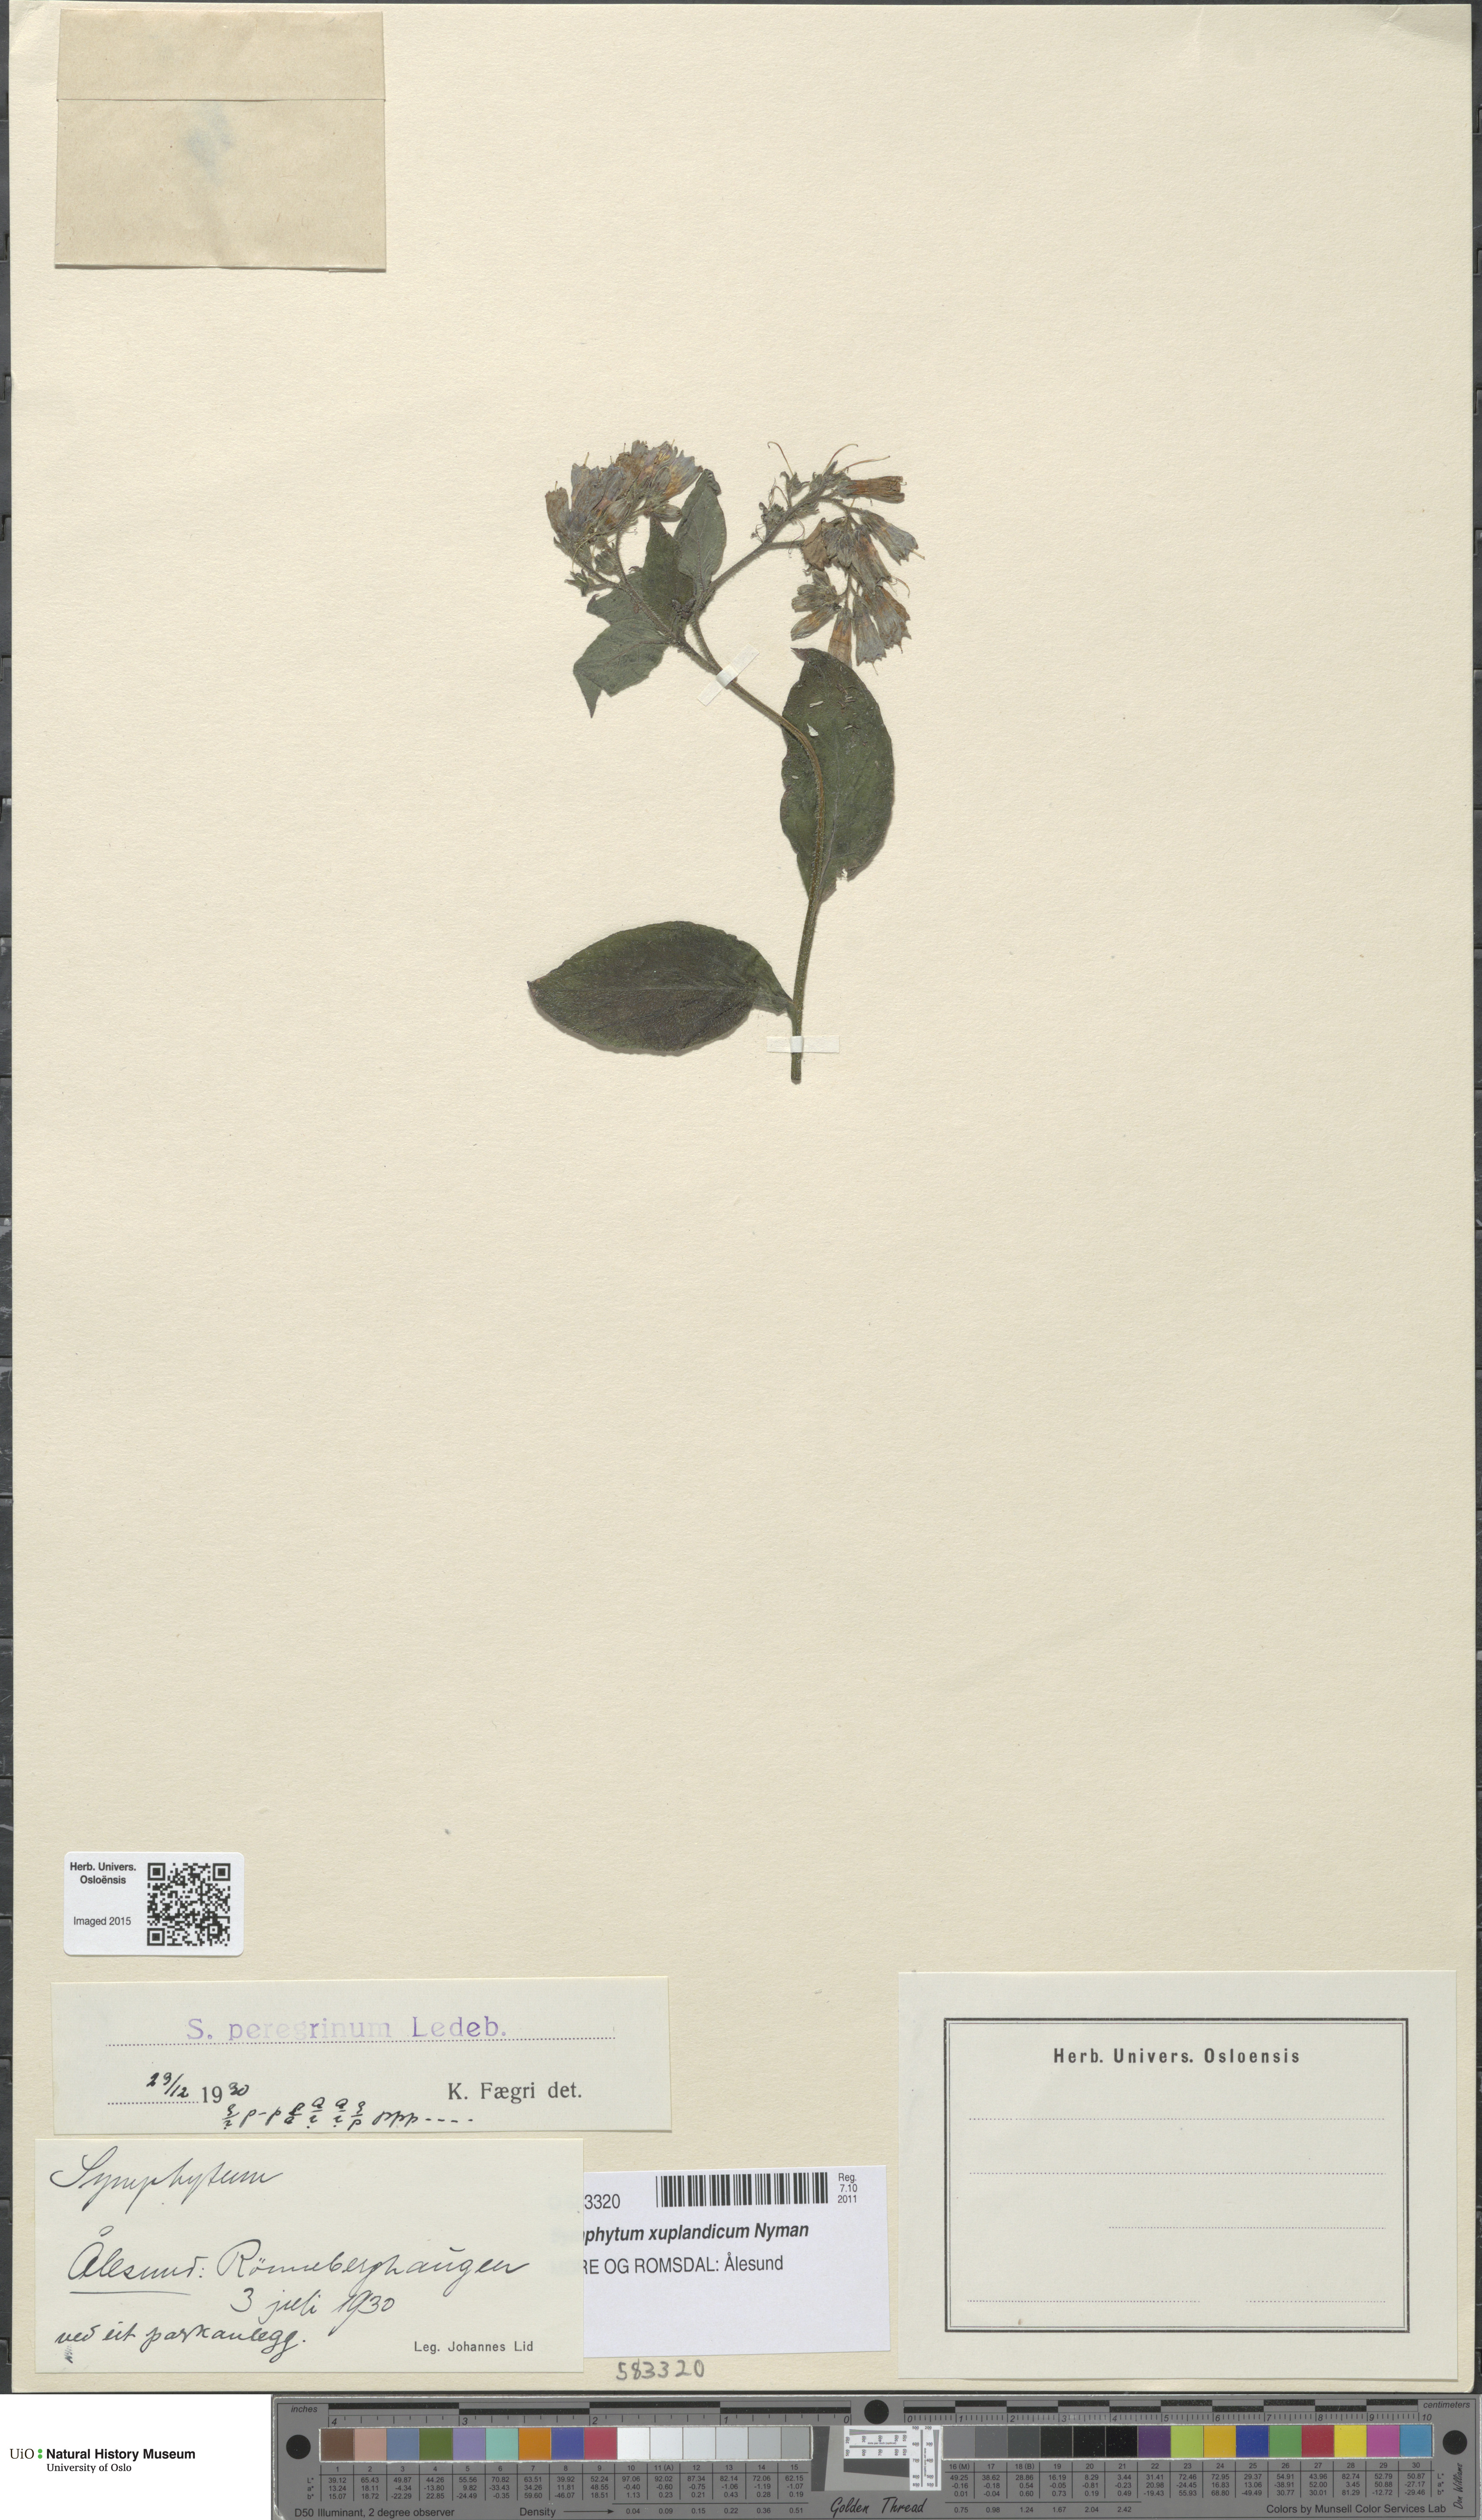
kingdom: Plantae
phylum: Tracheophyta
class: Magnoliopsida
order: Boraginales
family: Boraginaceae
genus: Symphytum
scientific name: Symphytum uplandicum
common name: Russian comfrey
